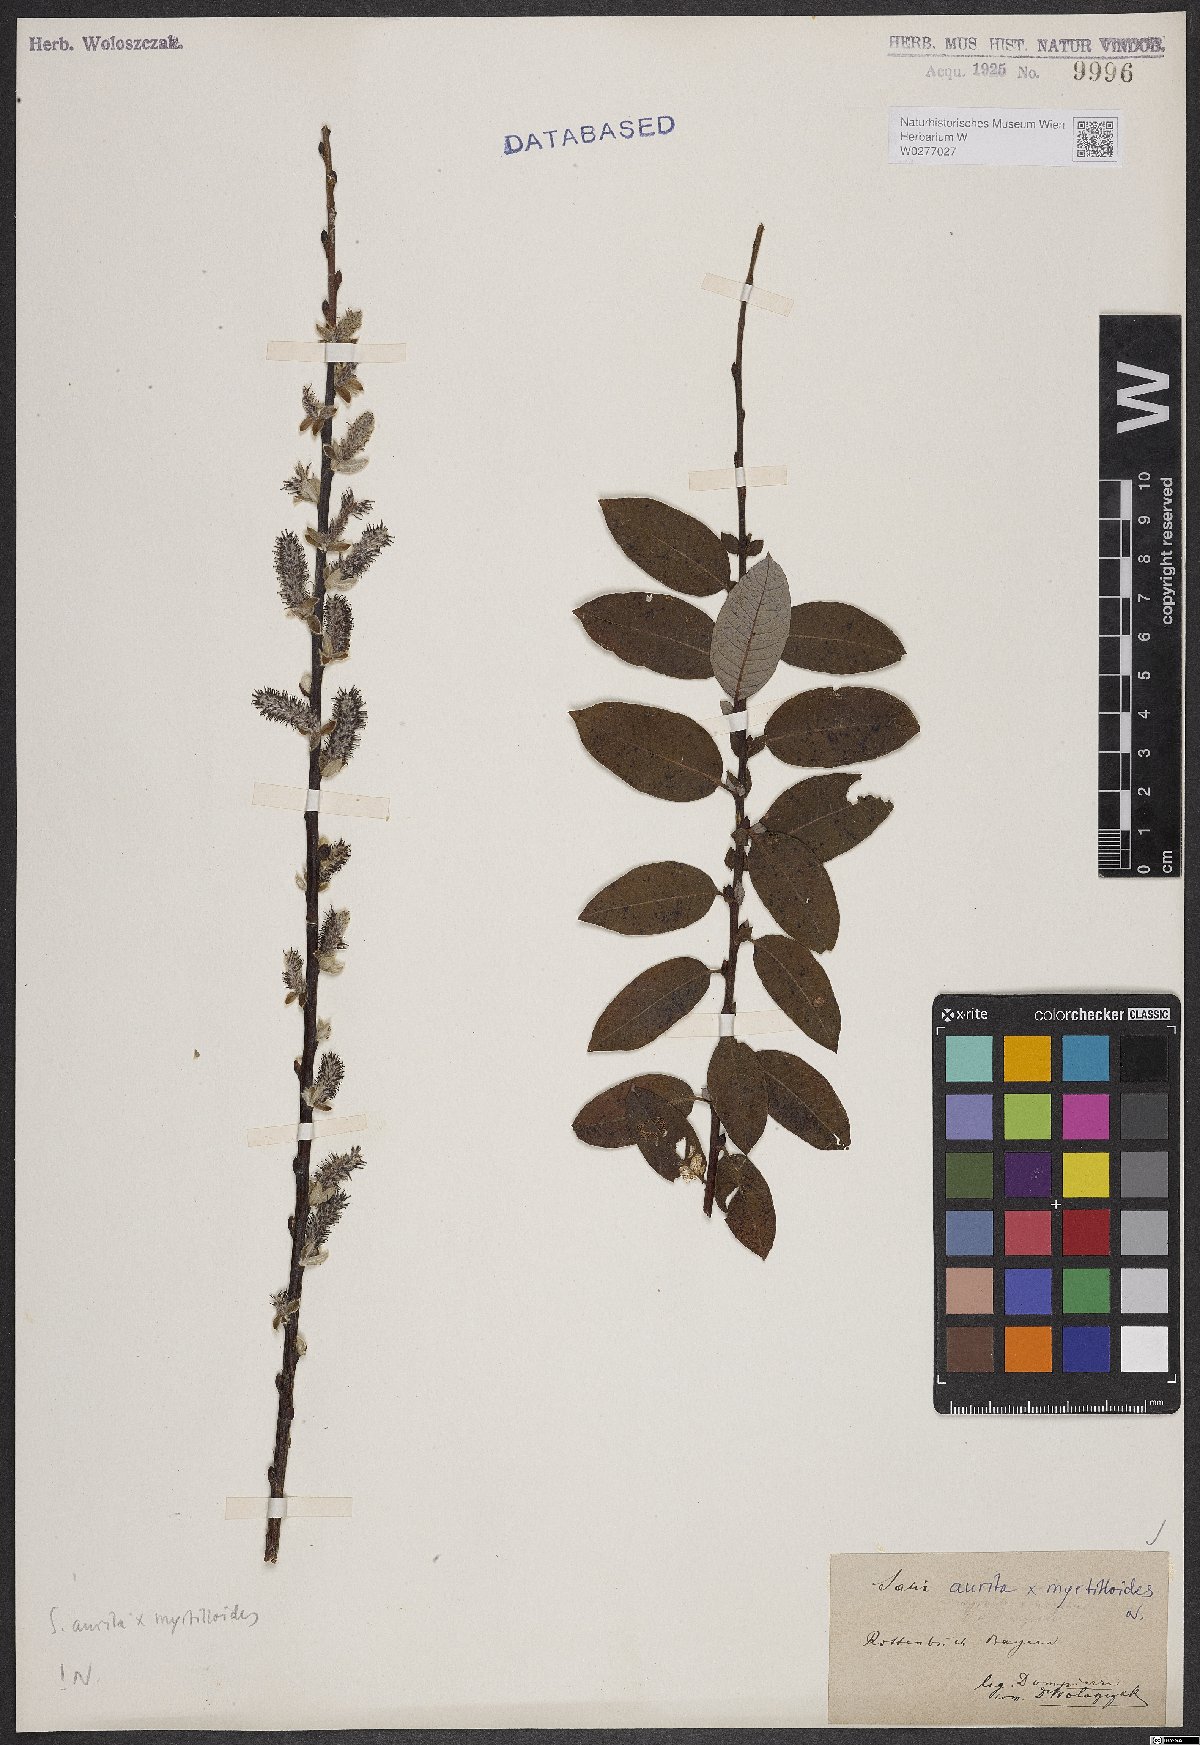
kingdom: Plantae
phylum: Tracheophyta
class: Magnoliopsida
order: Malpighiales
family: Salicaceae
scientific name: Salicaceae
